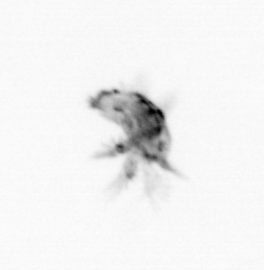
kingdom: Animalia
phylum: Arthropoda
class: Copepoda
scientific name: Copepoda
